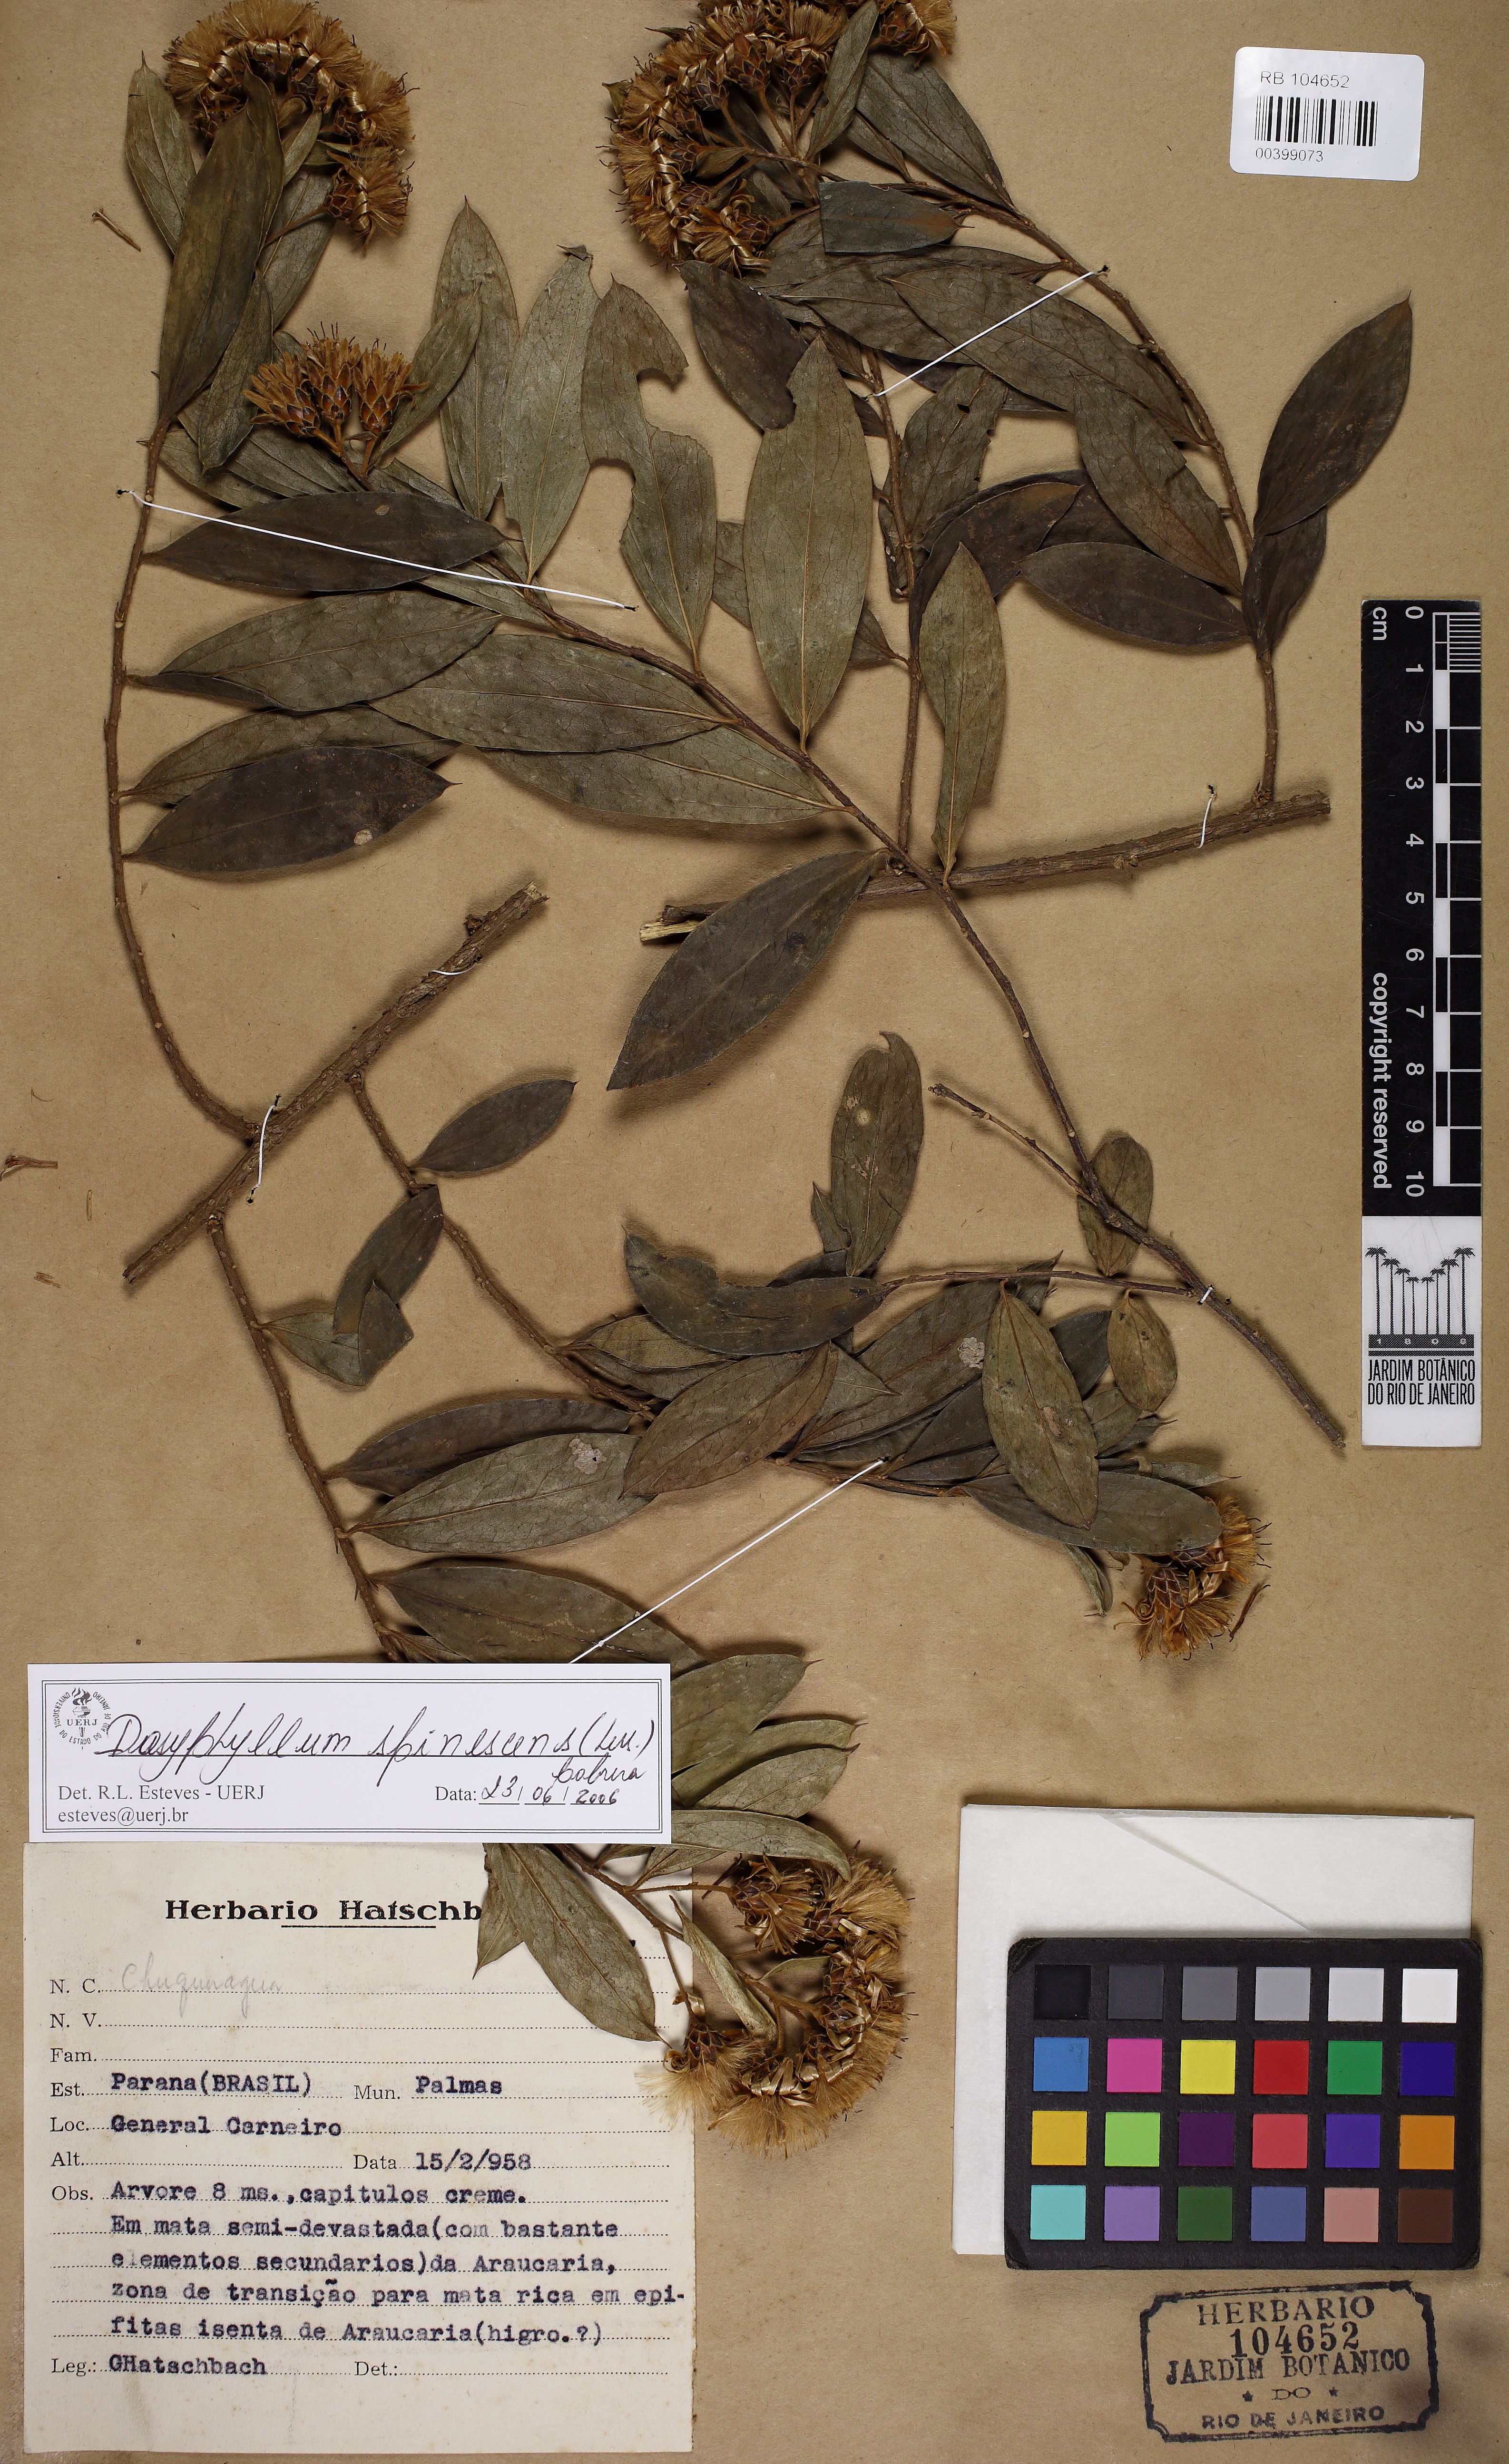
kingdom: Plantae
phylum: Tracheophyta
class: Magnoliopsida
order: Asterales
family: Asteraceae
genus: Dasyphyllum
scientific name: Dasyphyllum spinescens
